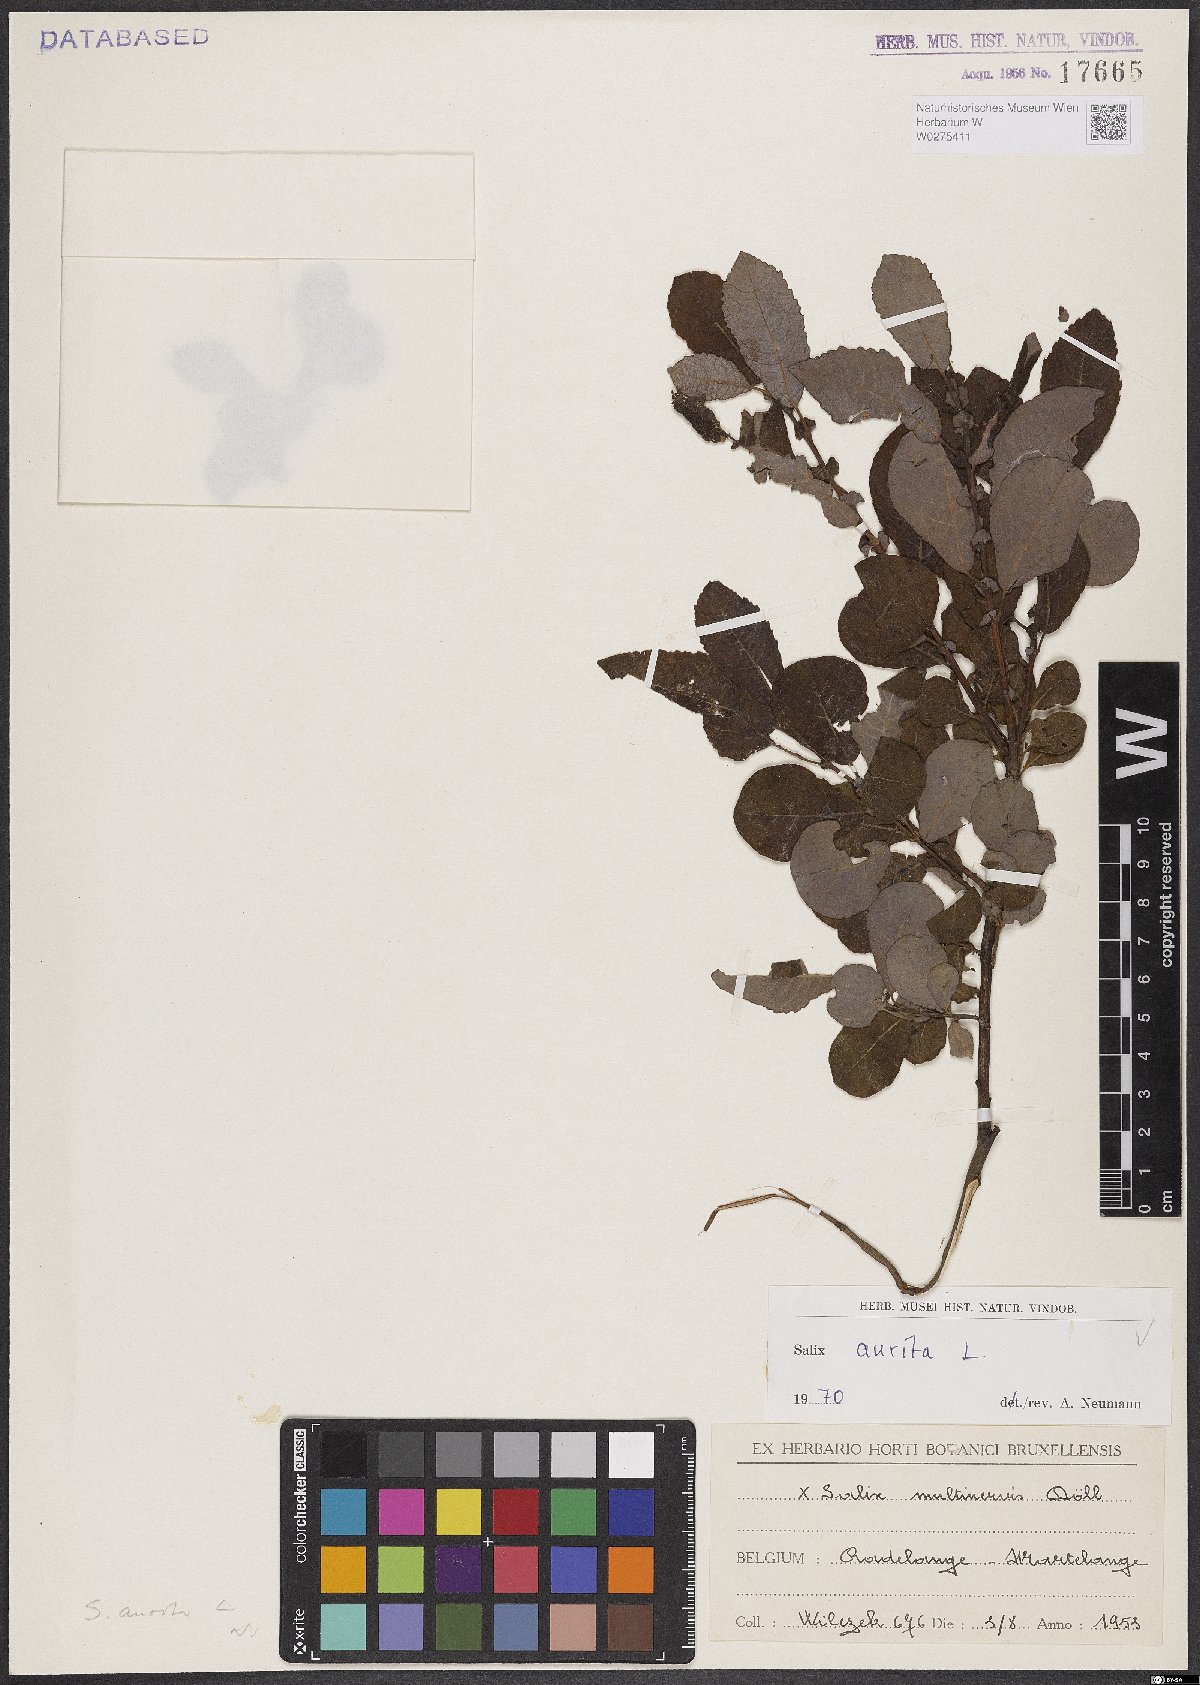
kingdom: Plantae
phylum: Tracheophyta
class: Magnoliopsida
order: Malpighiales
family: Salicaceae
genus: Salix
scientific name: Salix aurita
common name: Eared willow
